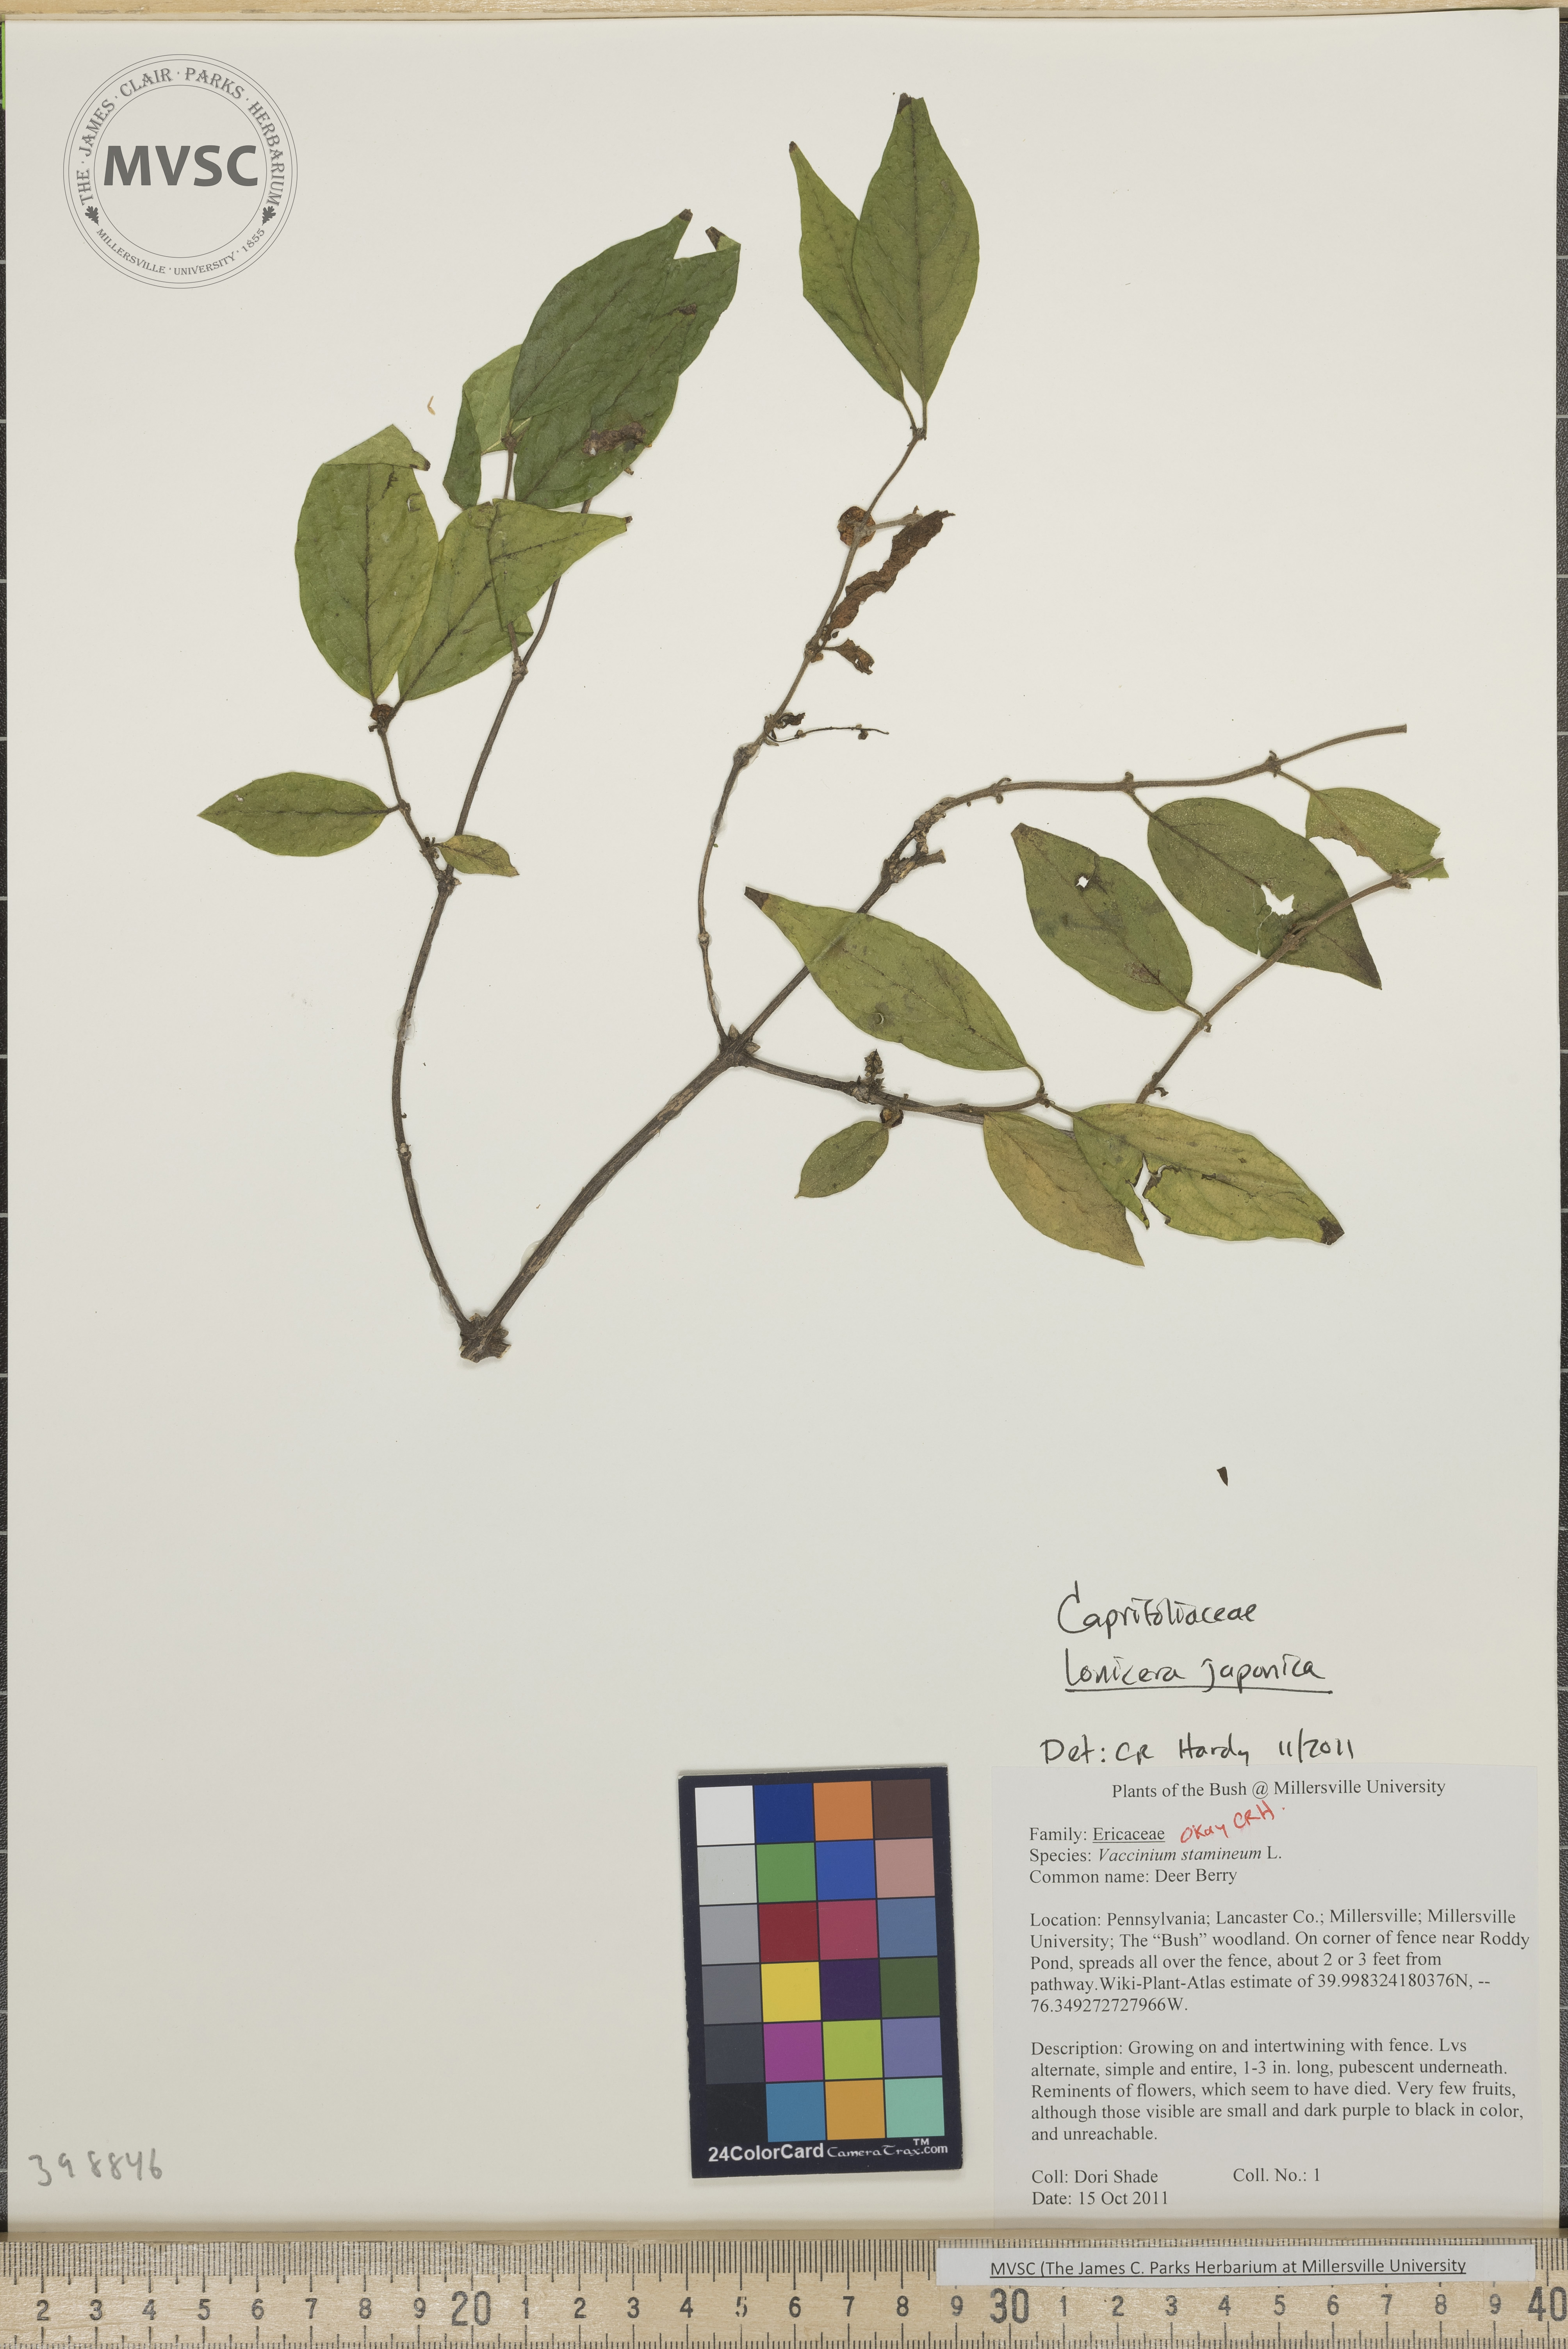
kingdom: Plantae
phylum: Tracheophyta
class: Magnoliopsida
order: Dipsacales
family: Caprifoliaceae
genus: Lonicera
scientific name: Lonicera japonica
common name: Japanese honeysuckle
